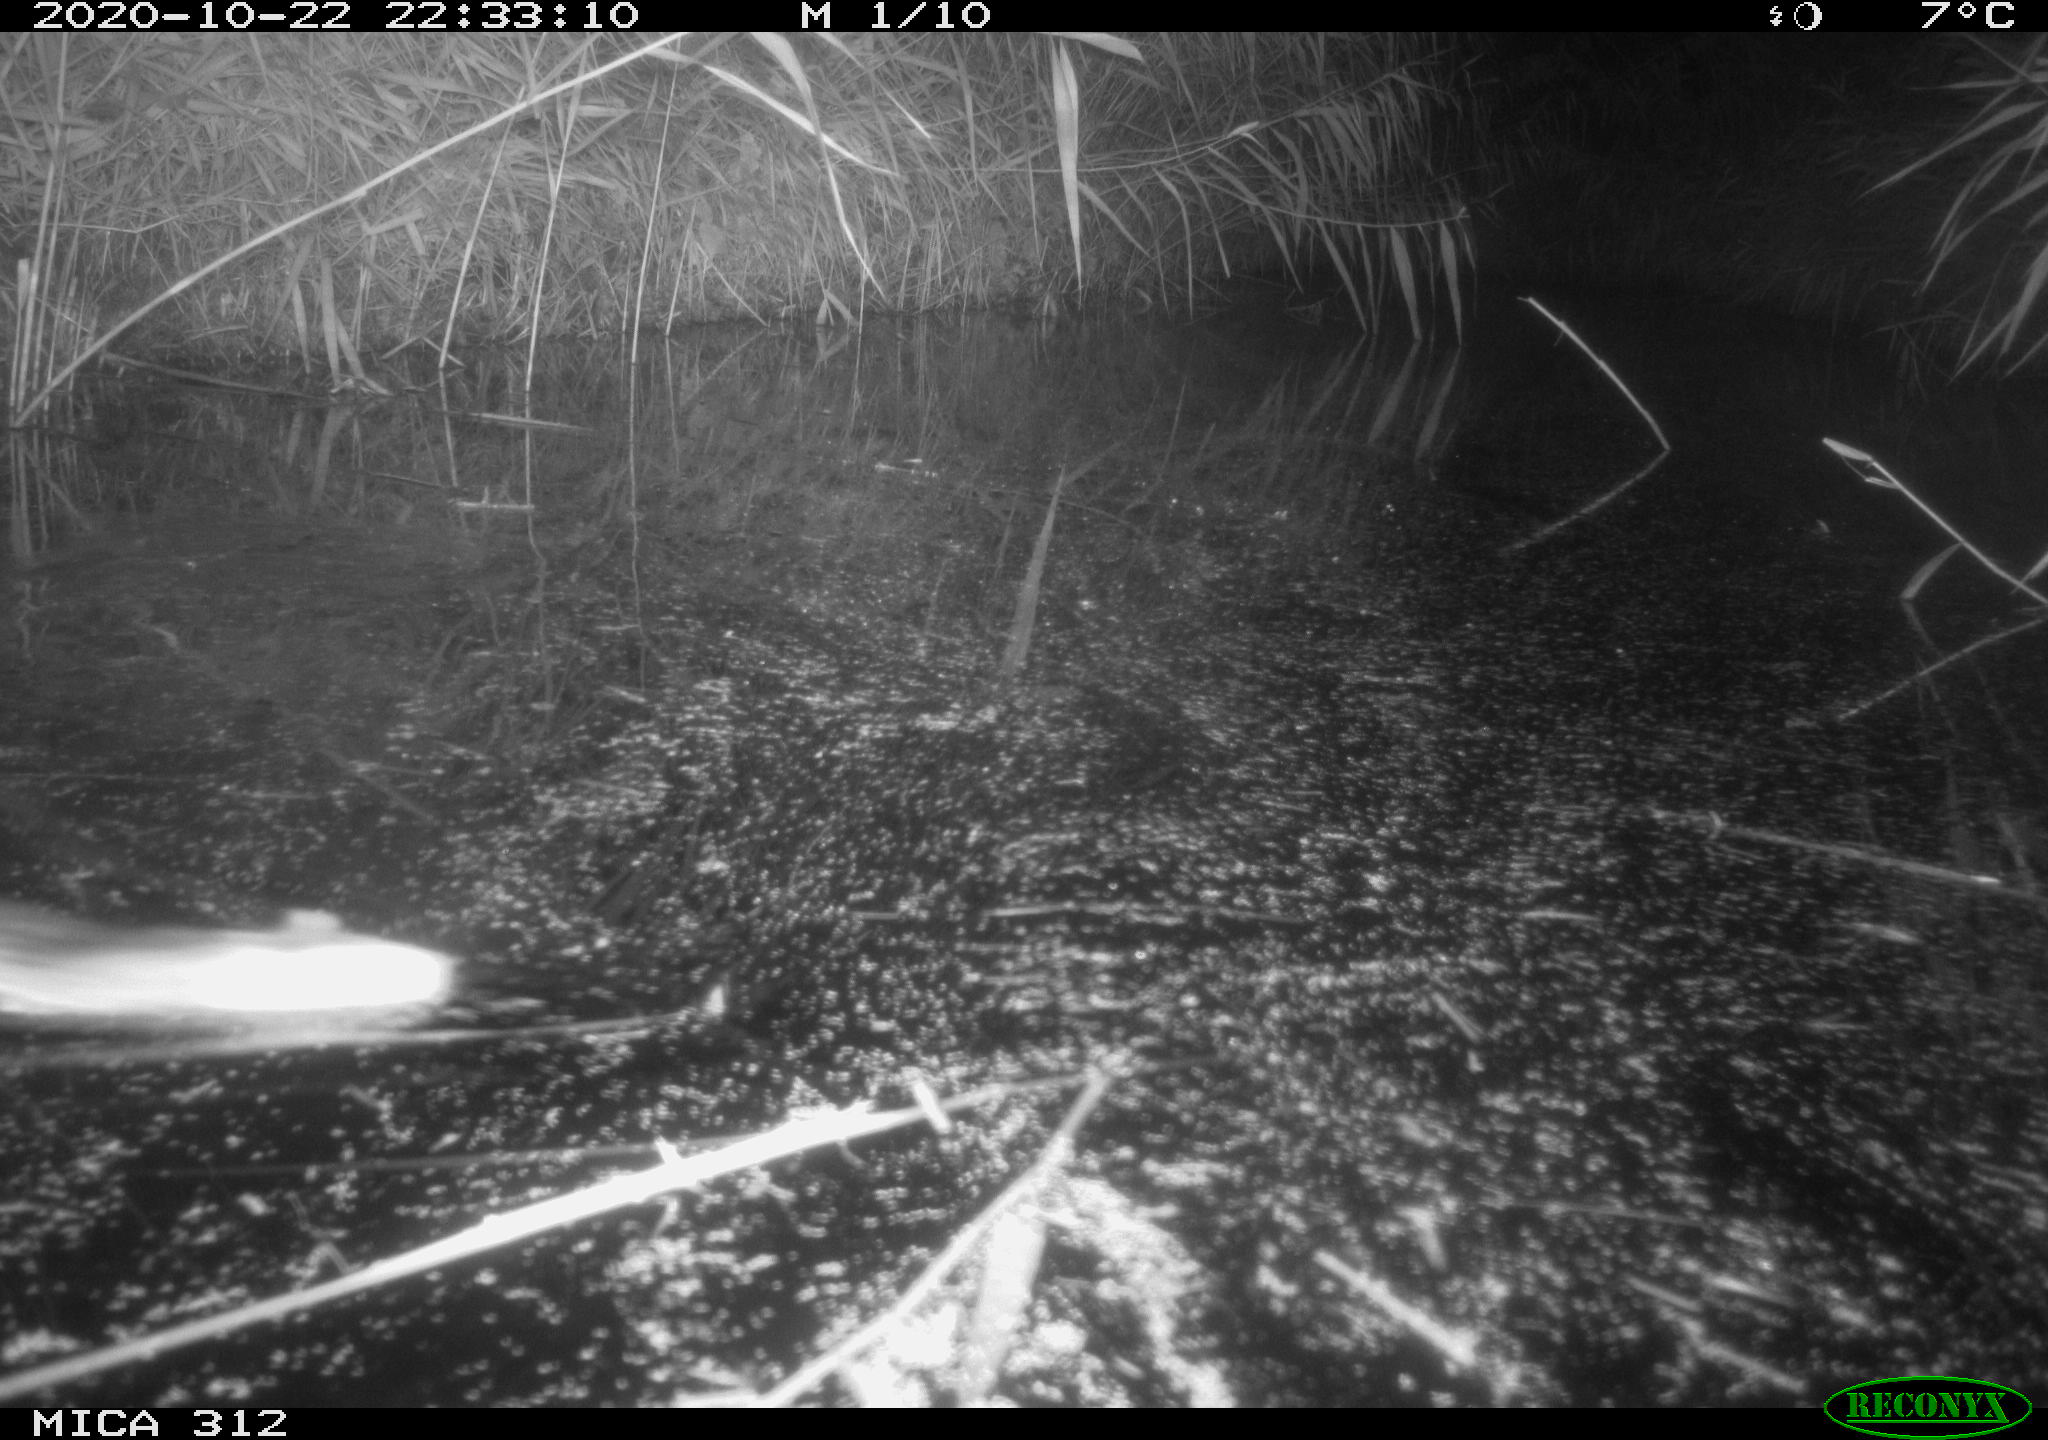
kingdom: Animalia
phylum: Chordata
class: Mammalia
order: Rodentia
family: Muridae
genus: Rattus
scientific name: Rattus norvegicus
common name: Brown rat
